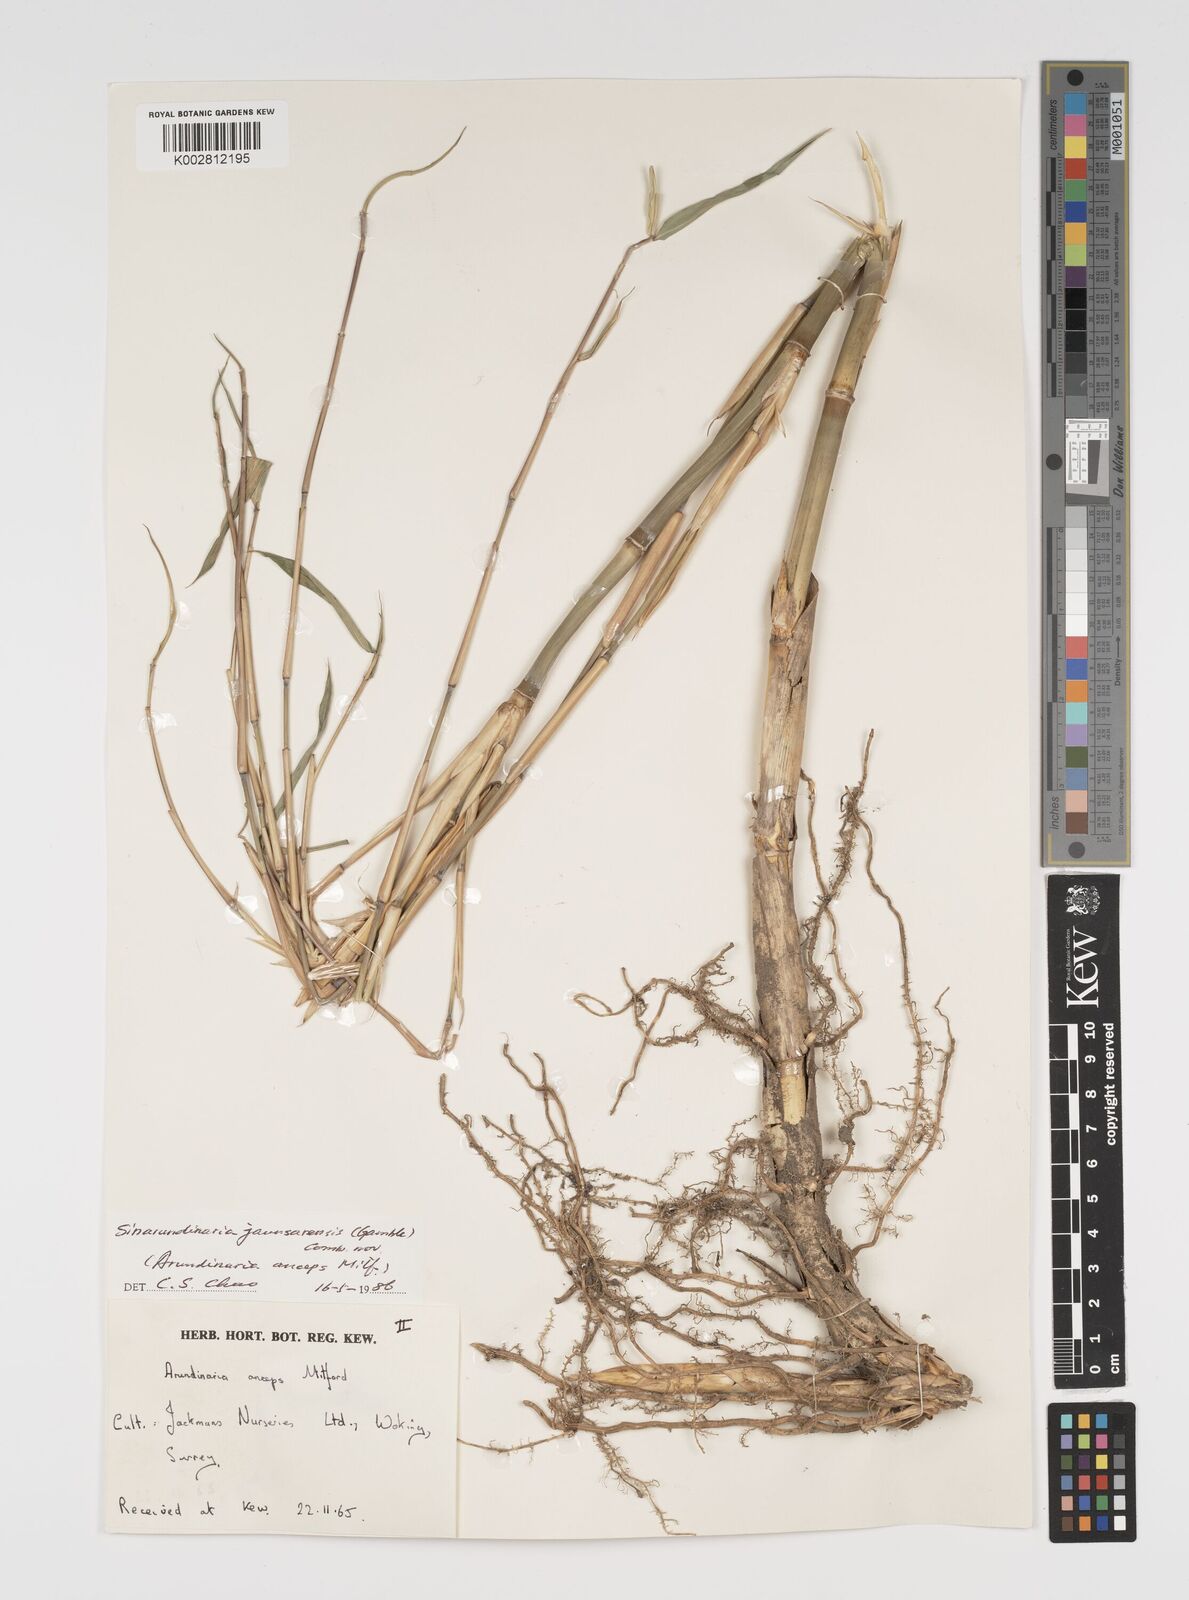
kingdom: Plantae
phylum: Tracheophyta
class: Liliopsida
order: Poales
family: Poaceae
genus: Yushania
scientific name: Yushania anceps
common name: Indian fountain-bamboo
